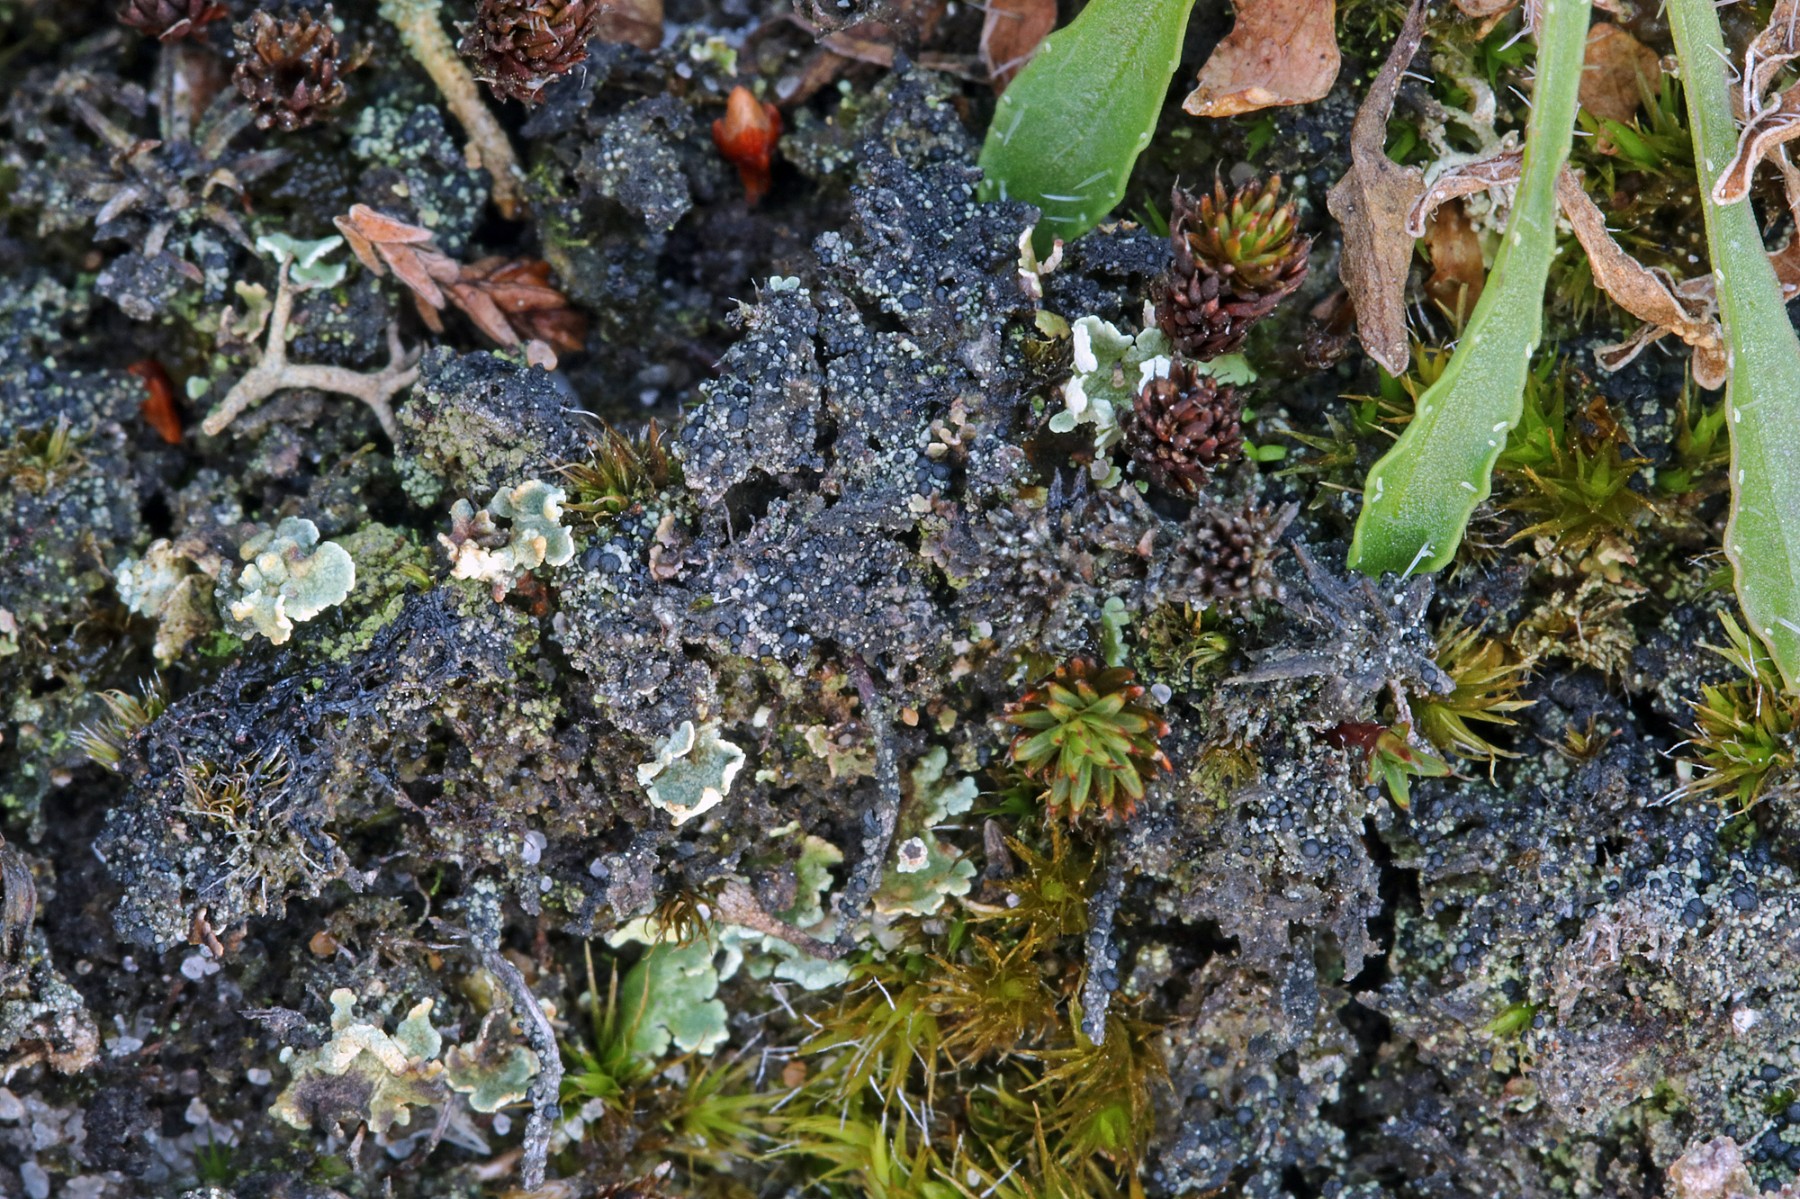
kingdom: Fungi
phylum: Ascomycota
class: Lecanoromycetes
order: Lecanorales
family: Byssolomataceae
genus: Micarea
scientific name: Micarea lignaria
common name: tørve-knaplav
